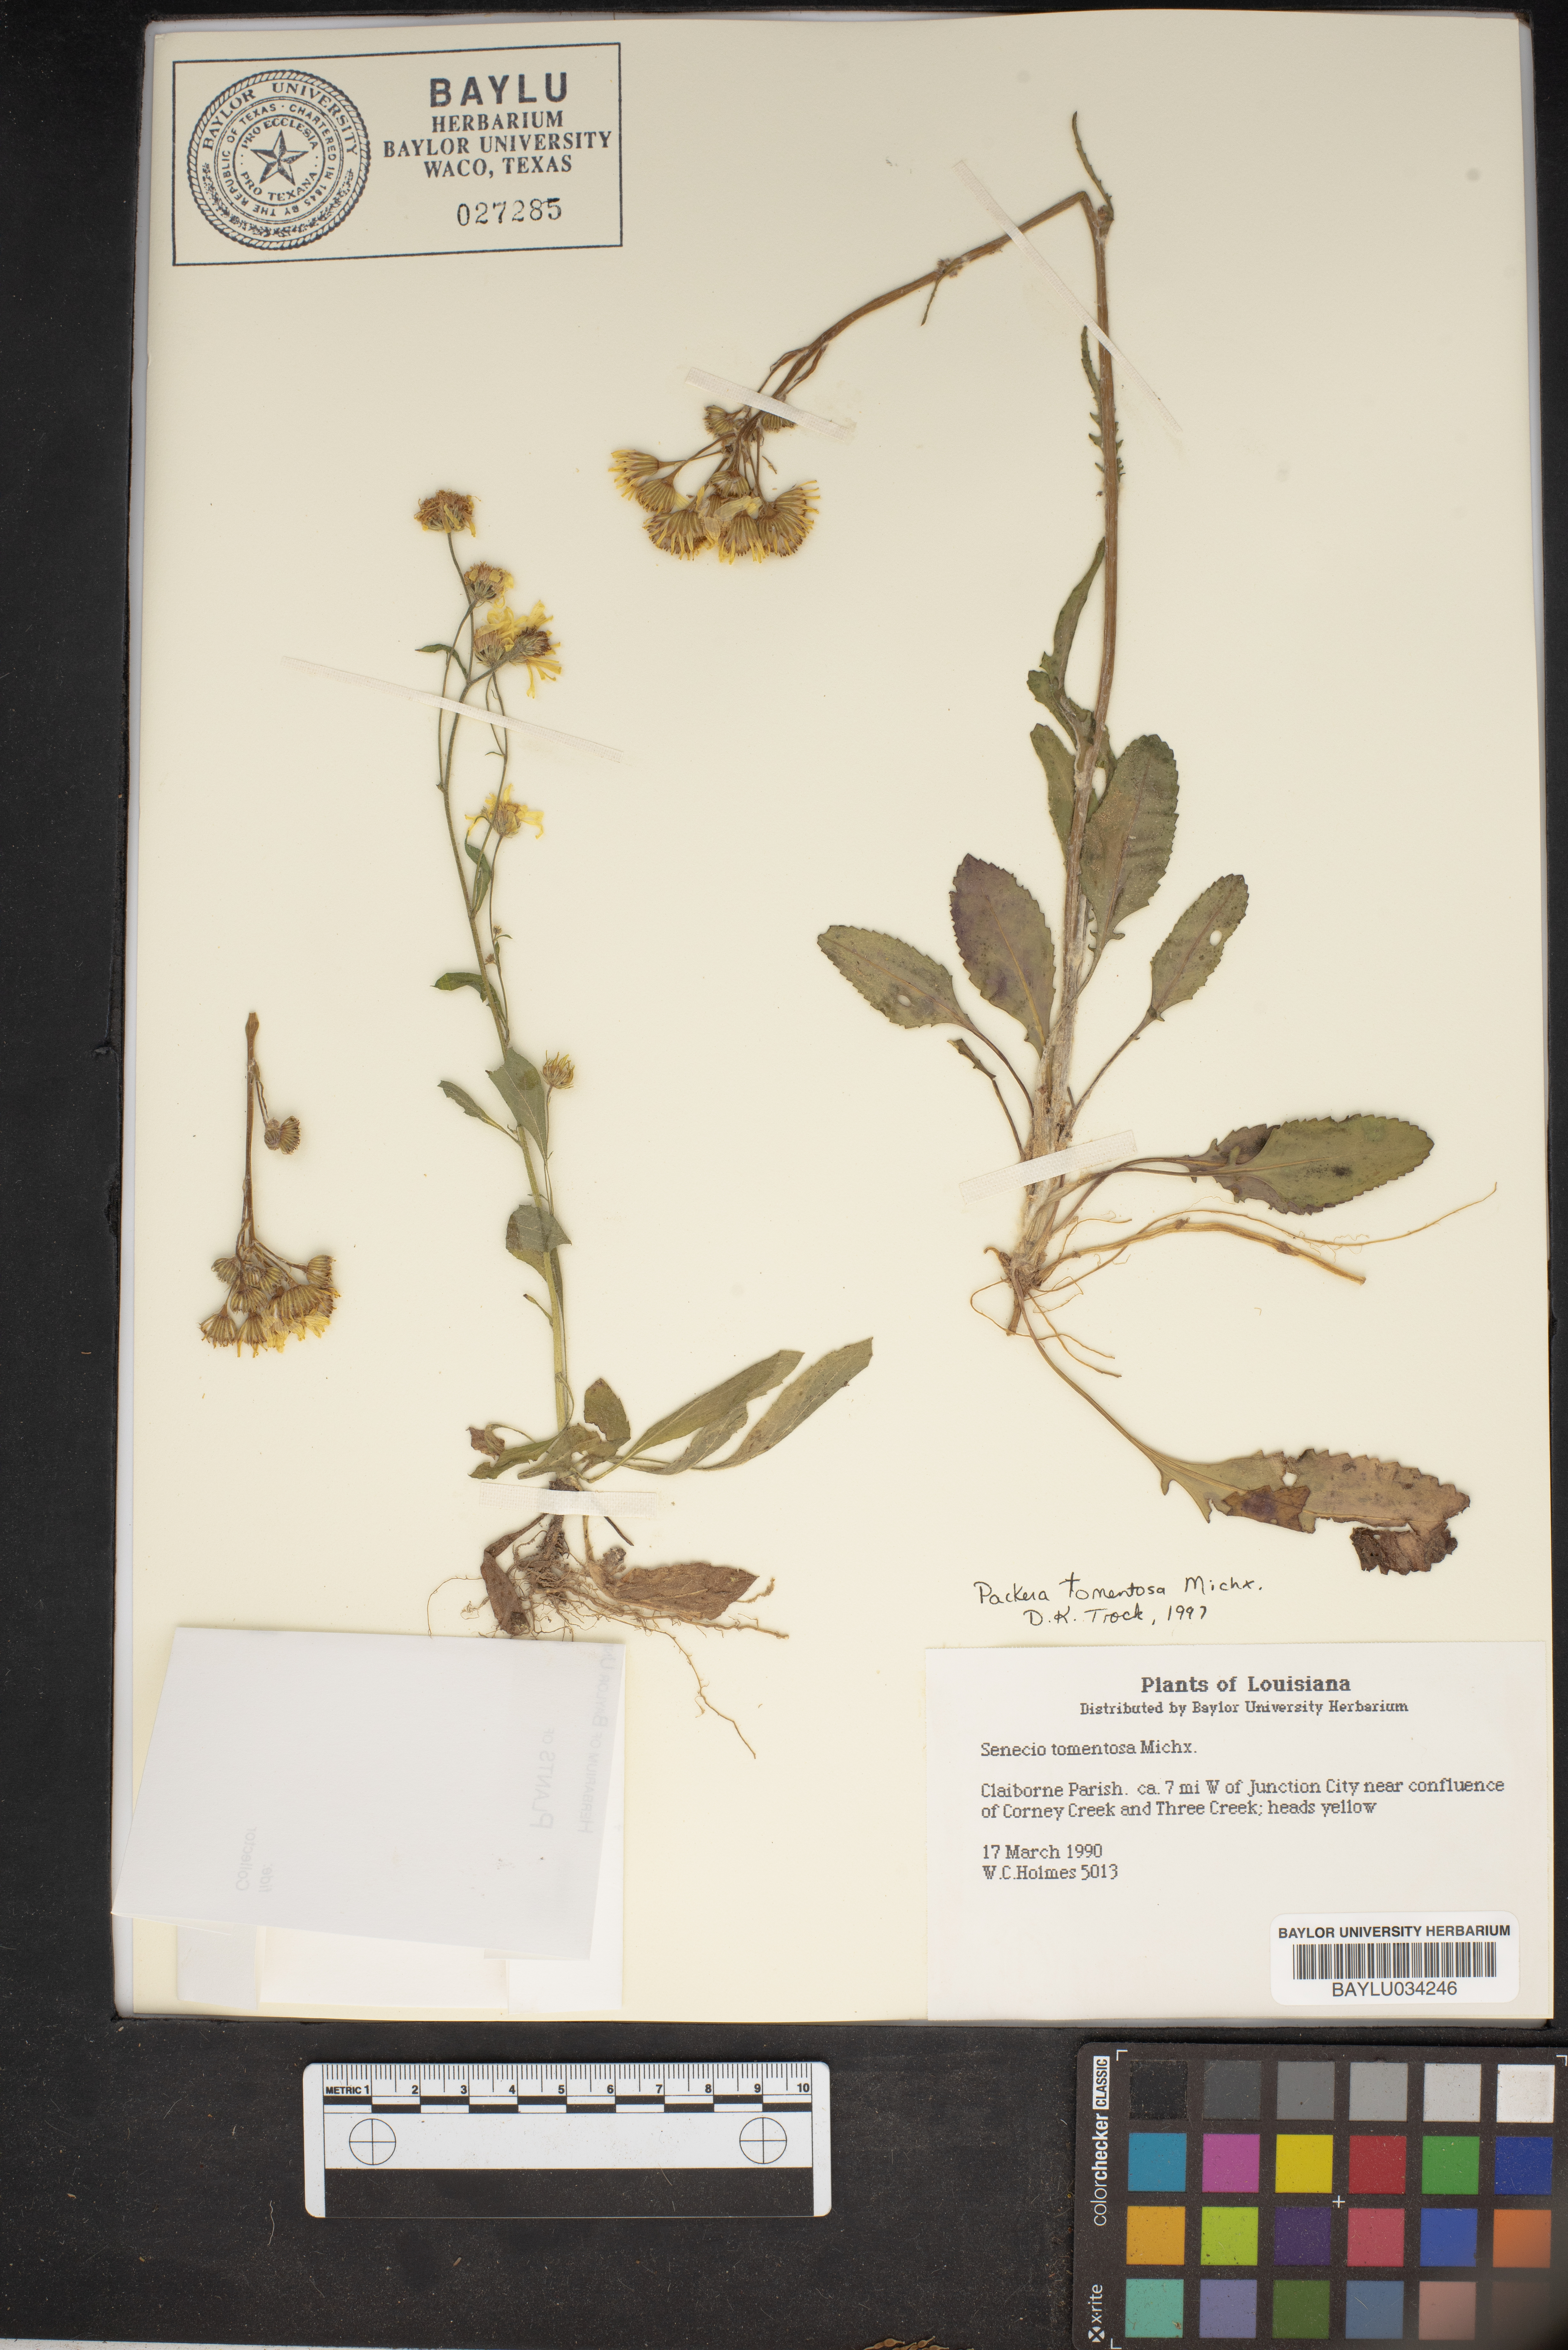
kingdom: Plantae
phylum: Tracheophyta
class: Magnoliopsida
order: Asterales
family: Asteraceae
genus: Packera
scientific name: Packera dubia
